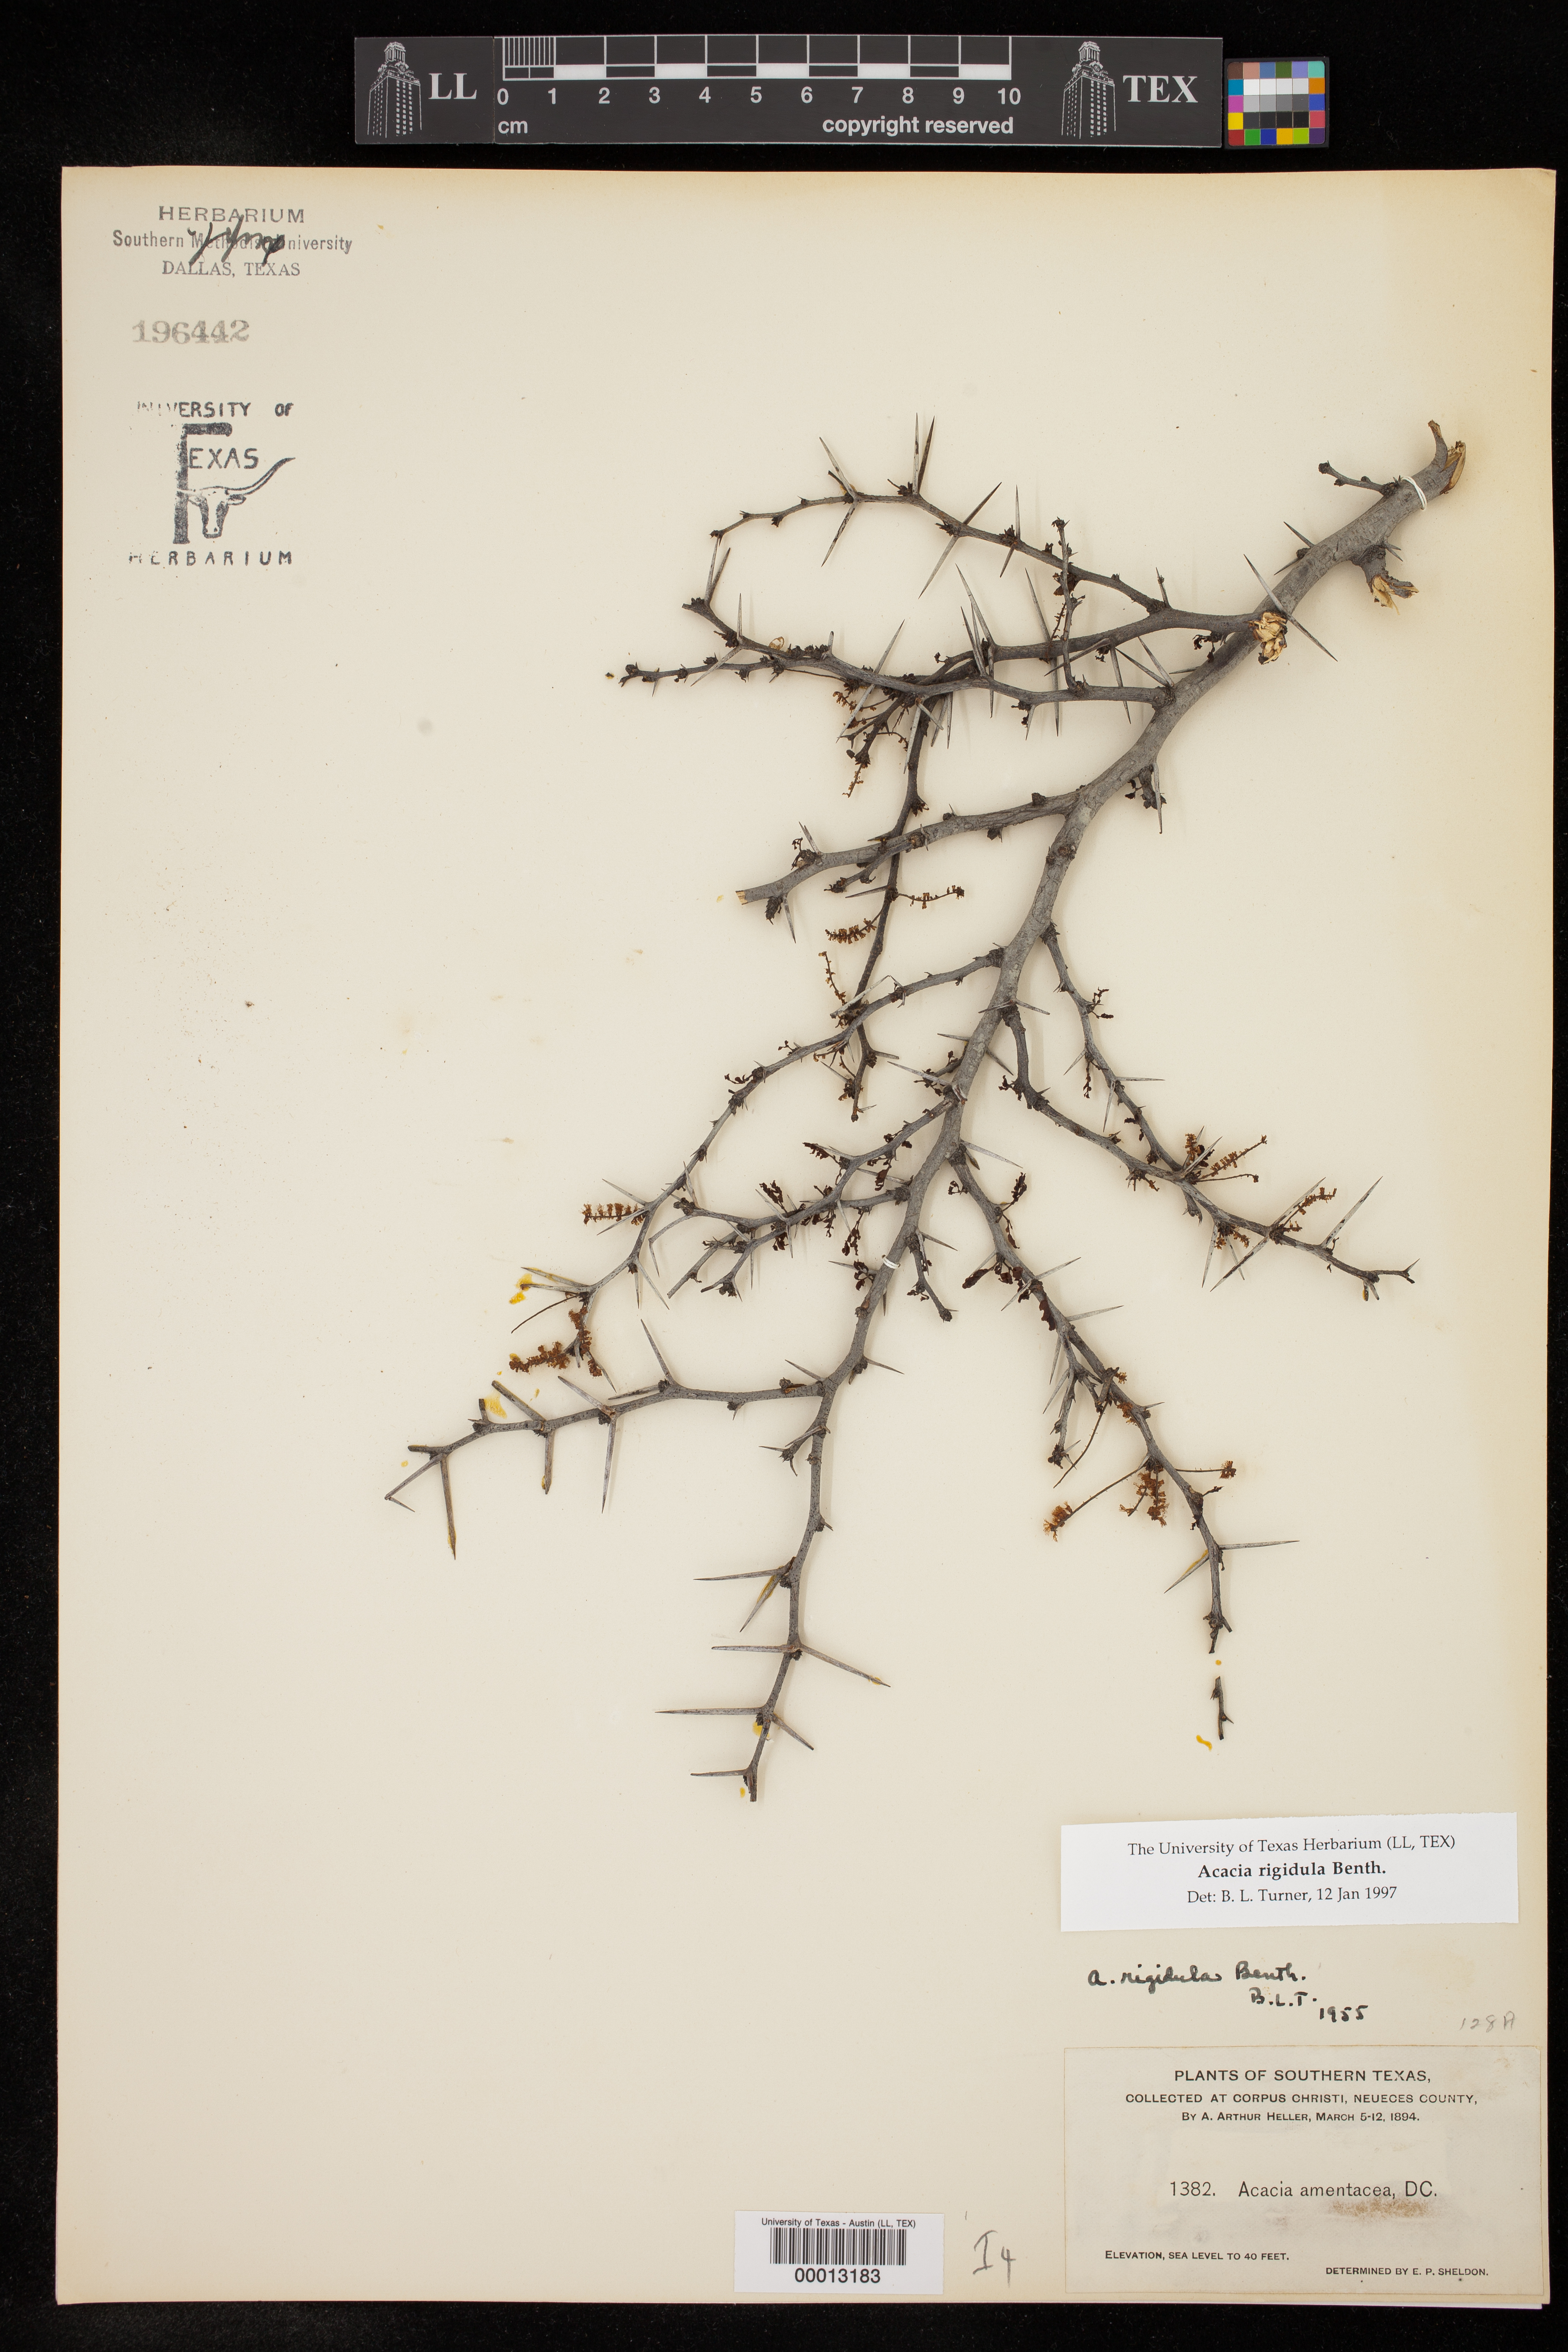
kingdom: Plantae
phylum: Tracheophyta
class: Magnoliopsida
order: Fabales
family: Fabaceae
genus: Vachellia
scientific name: Vachellia rigidula
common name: Blackbrush
